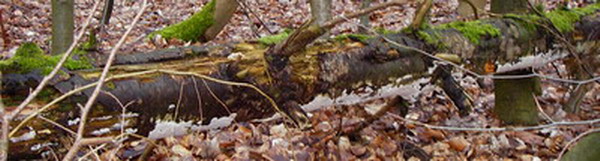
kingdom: Fungi
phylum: Basidiomycota
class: Agaricomycetes
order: Polyporales
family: Gelatoporiaceae
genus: Cinereomyces
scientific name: Cinereomyces lindbladii
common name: almindelig gråporesvamp
